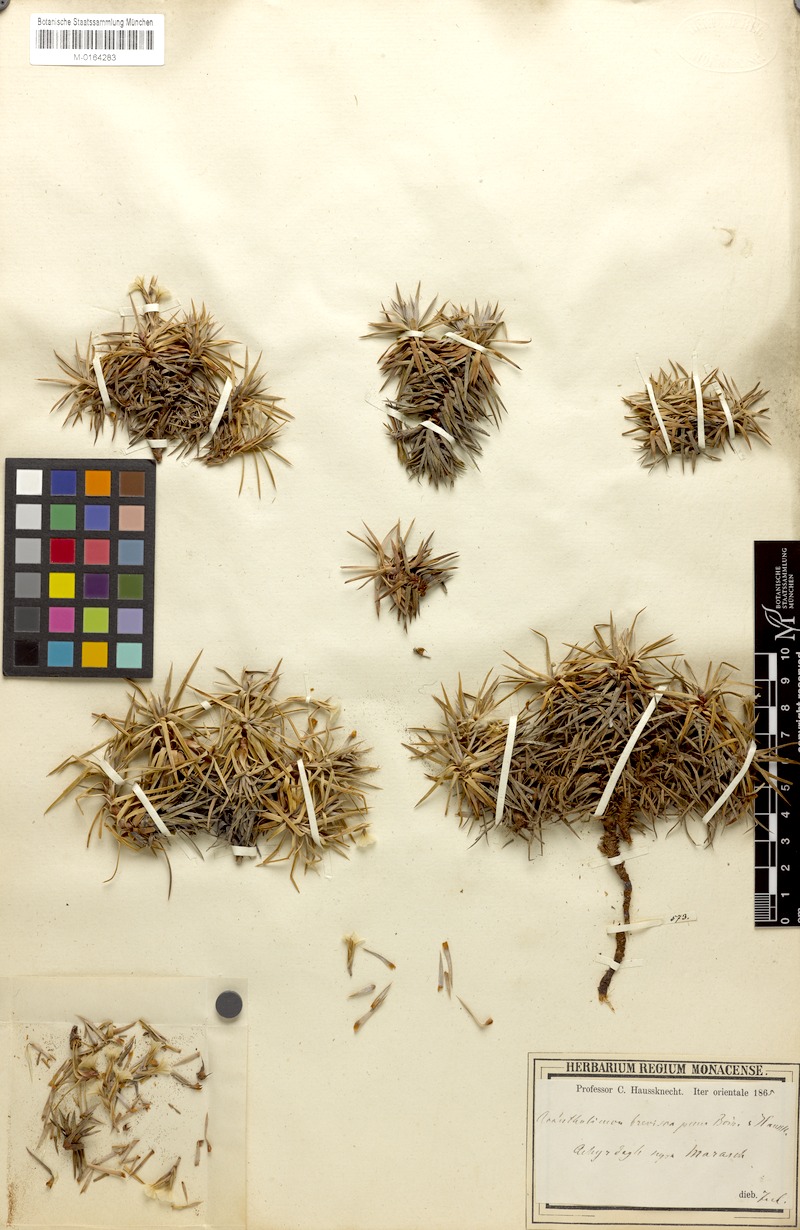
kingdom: Plantae
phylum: Tracheophyta
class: Magnoliopsida
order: Caryophyllales
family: Plumbaginaceae
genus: Acantholimon
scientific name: Acantholimon kotschyi
